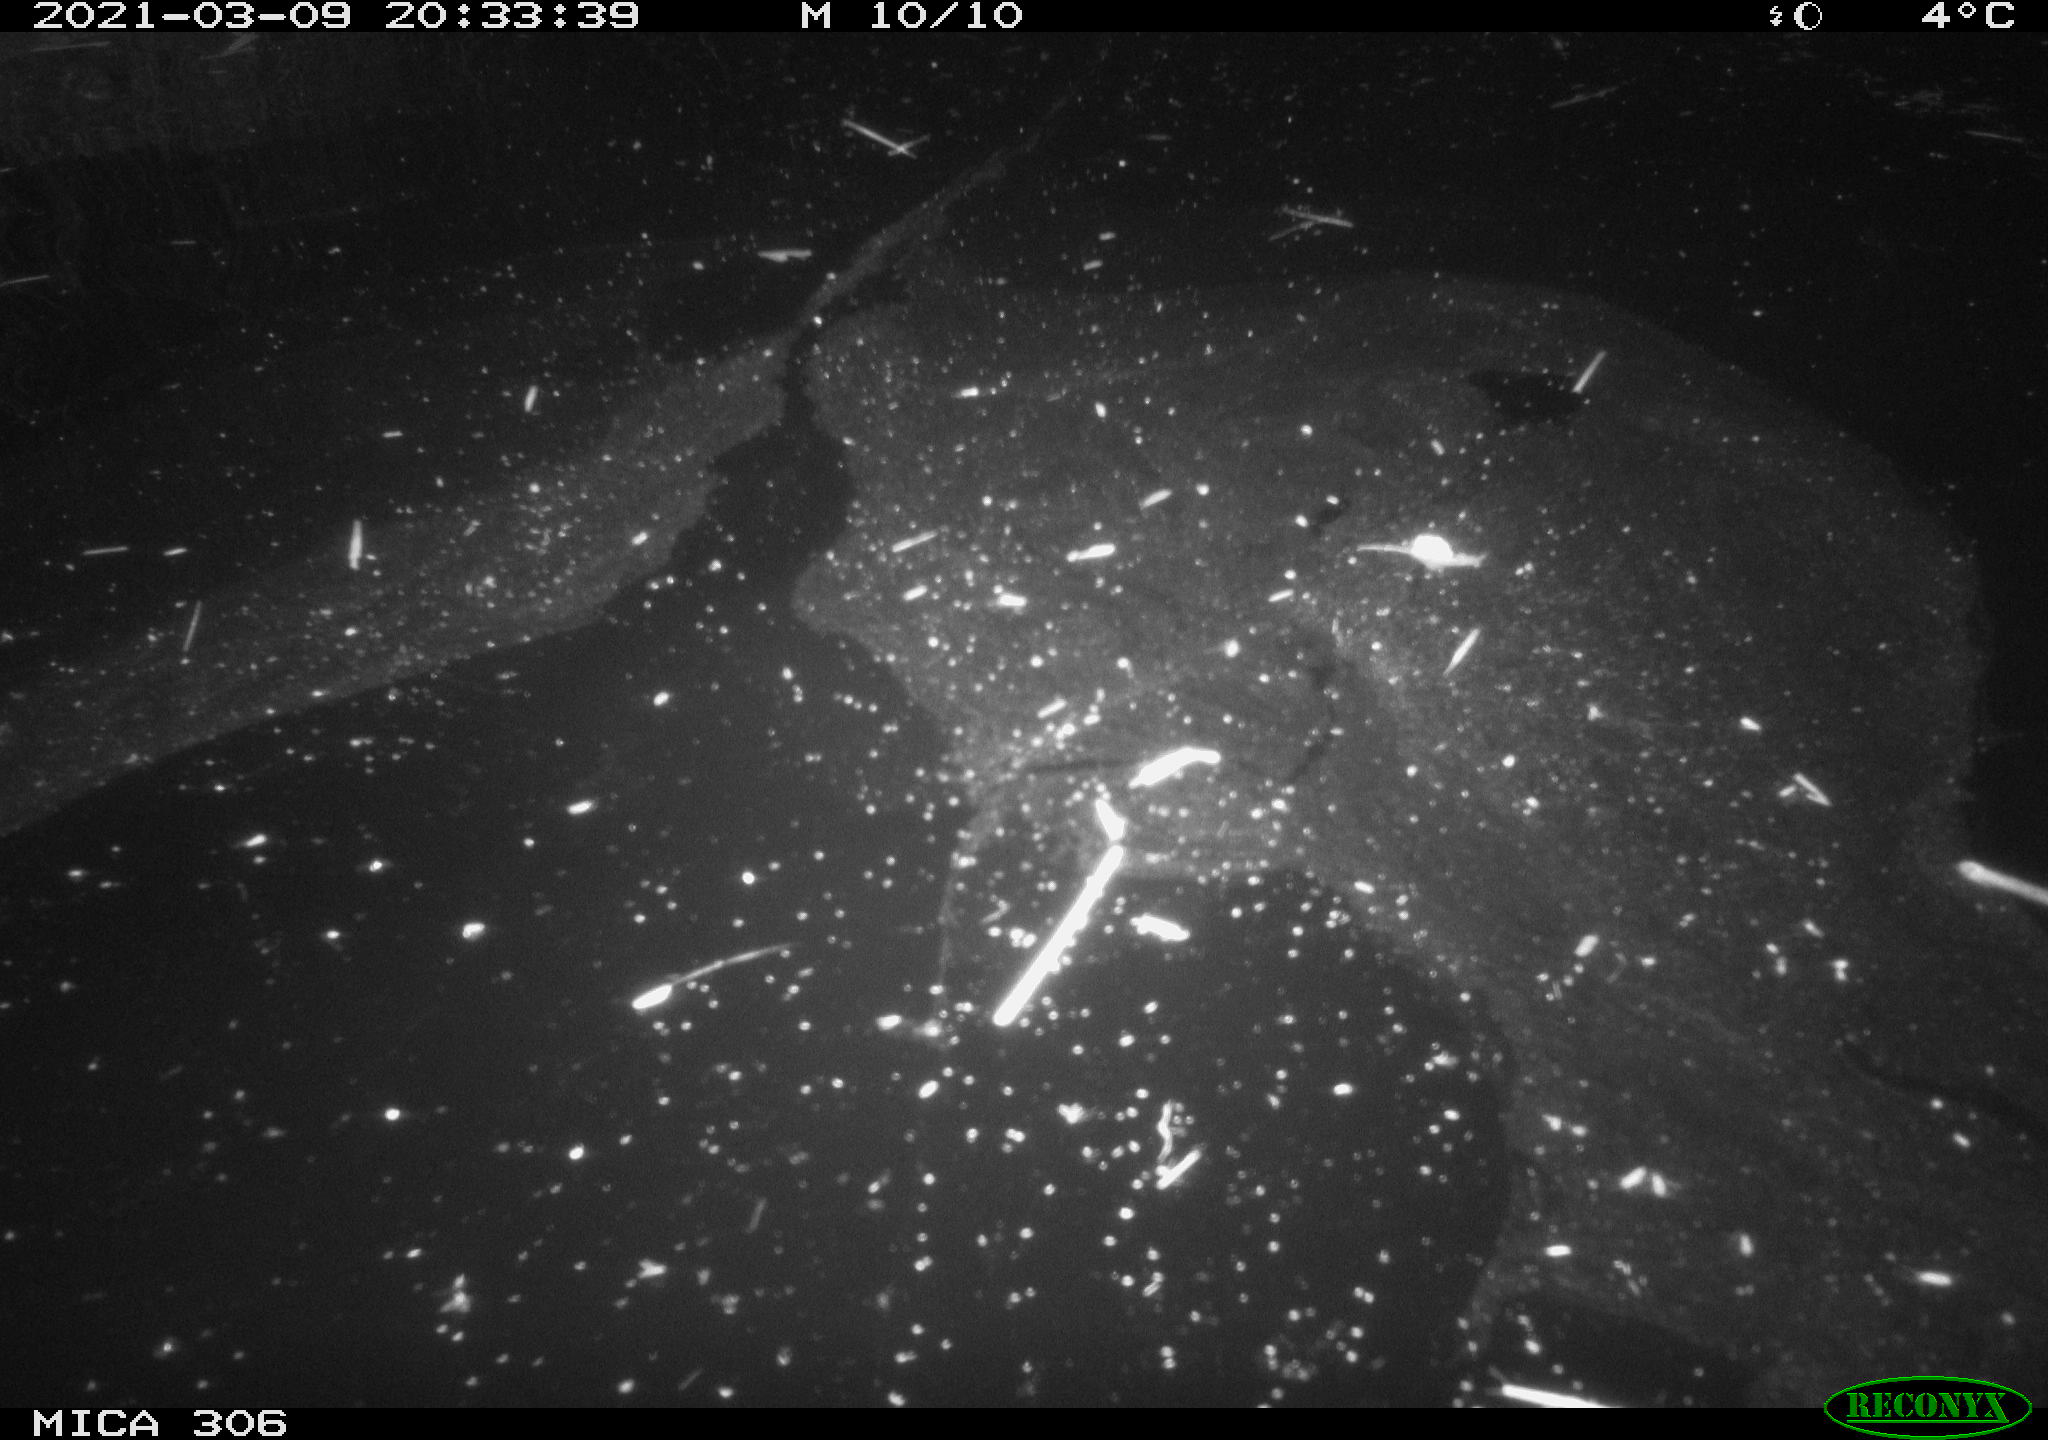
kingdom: Animalia
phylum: Chordata
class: Mammalia
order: Rodentia
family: Cricetidae
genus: Ondatra
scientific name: Ondatra zibethicus
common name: Muskrat
